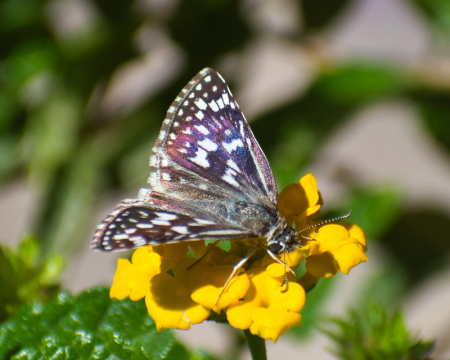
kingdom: Animalia
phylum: Arthropoda
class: Insecta
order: Lepidoptera
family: Hesperiidae
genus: Pyrgus
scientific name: Pyrgus communis
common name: Common Checkered-Skipper
